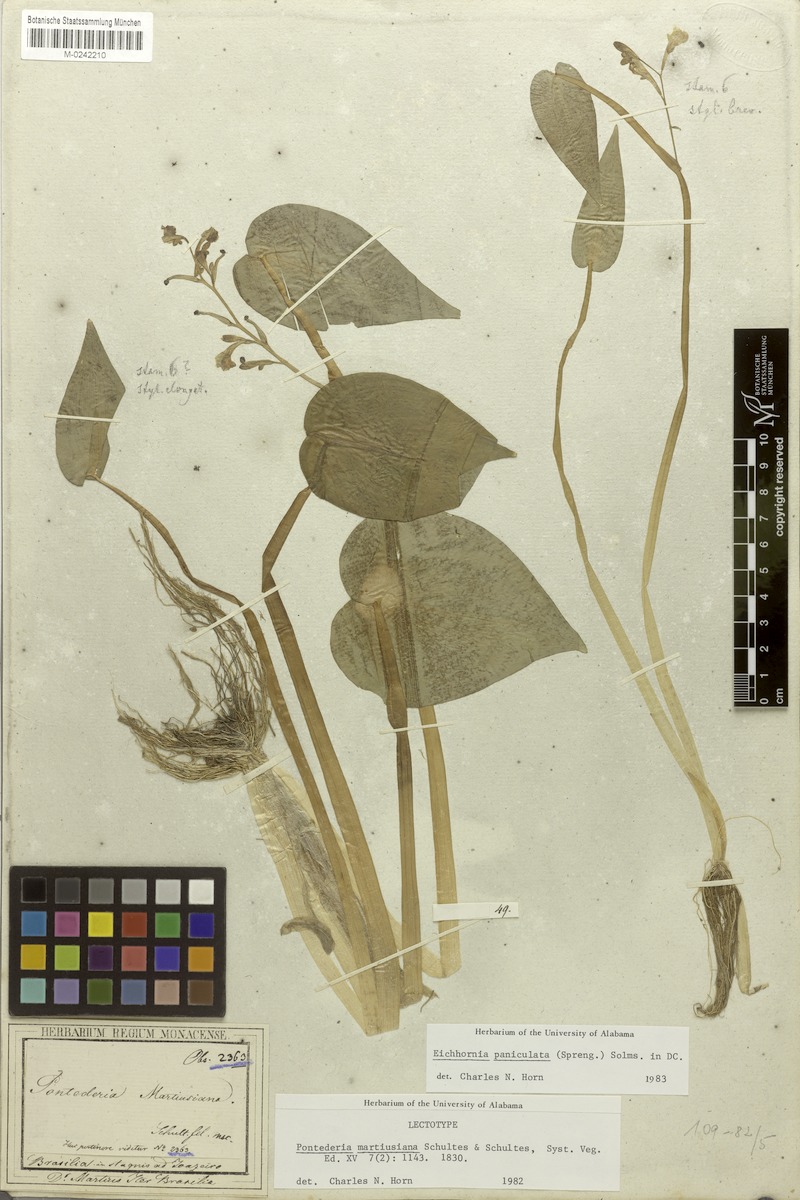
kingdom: Plantae
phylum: Tracheophyta
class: Liliopsida
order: Commelinales
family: Pontederiaceae
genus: Pontederia
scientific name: Pontederia paniculata
